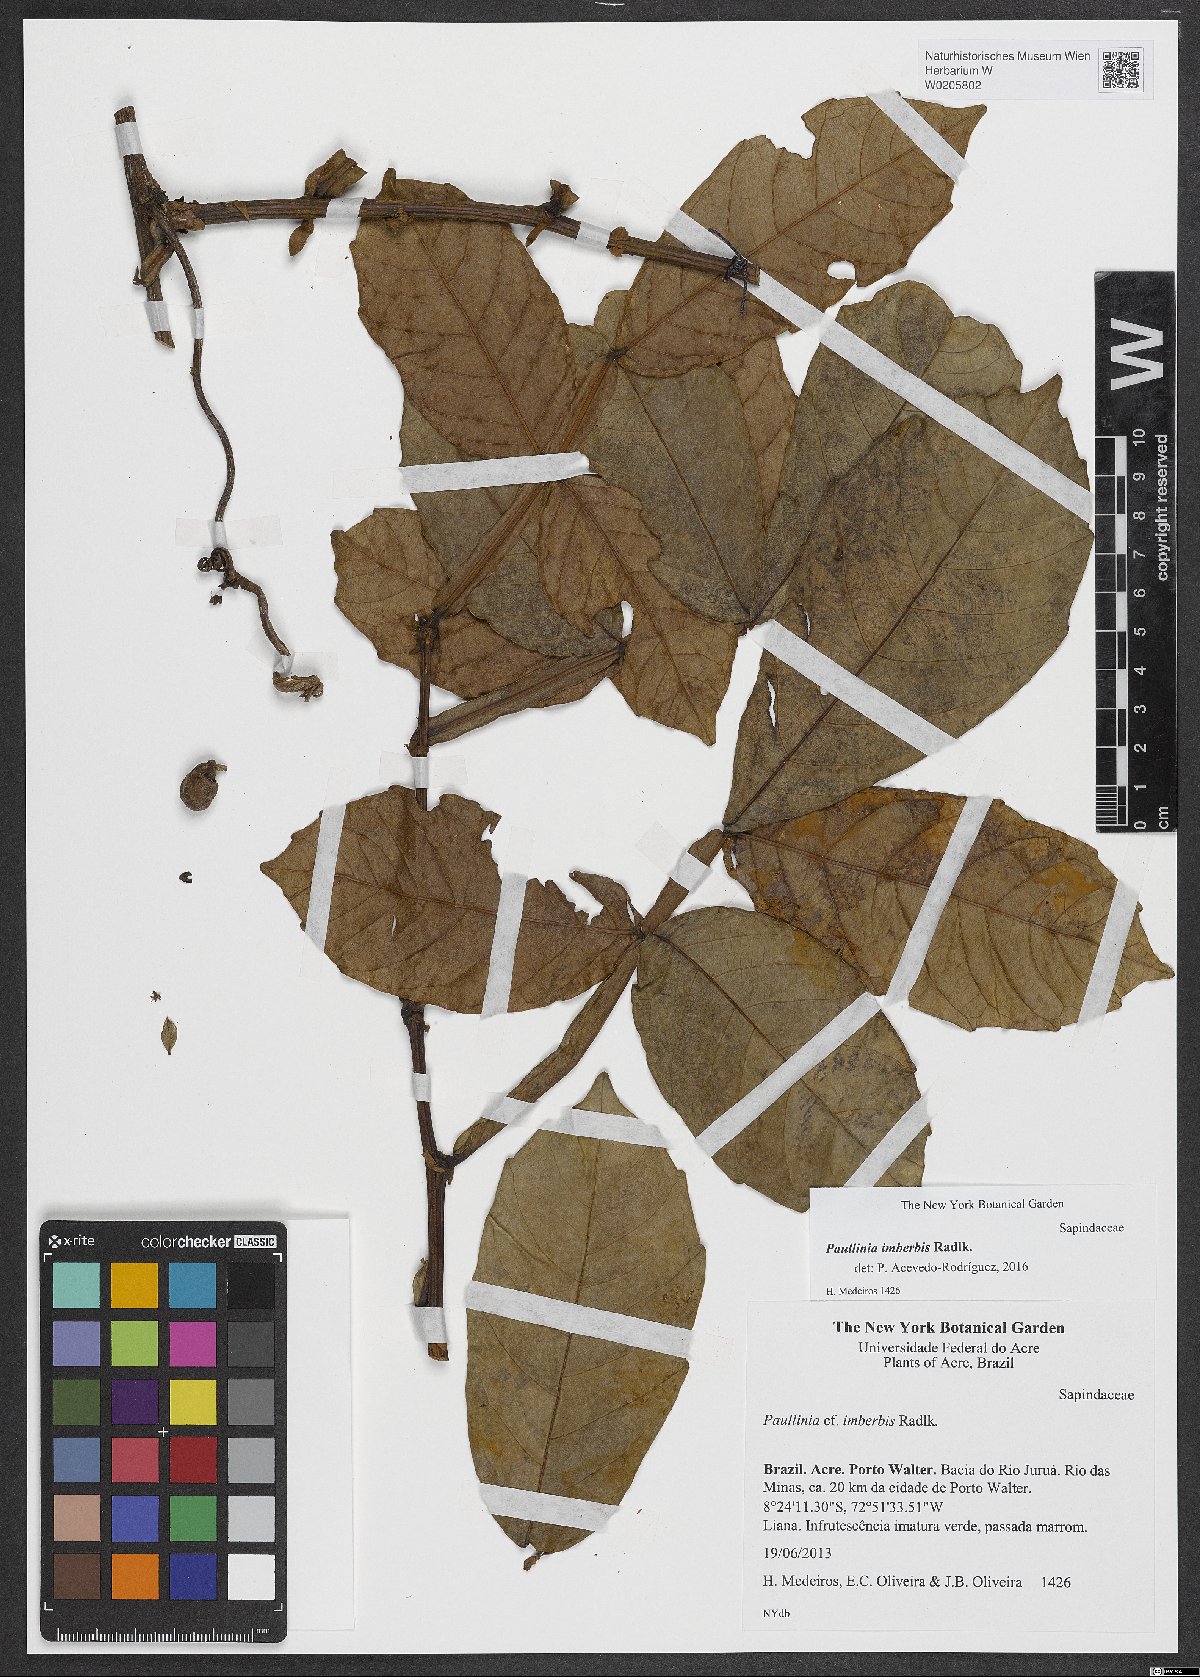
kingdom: Plantae
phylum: Tracheophyta
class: Magnoliopsida
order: Sapindales
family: Sapindaceae
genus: Paullinia
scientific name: Paullinia imberbis
